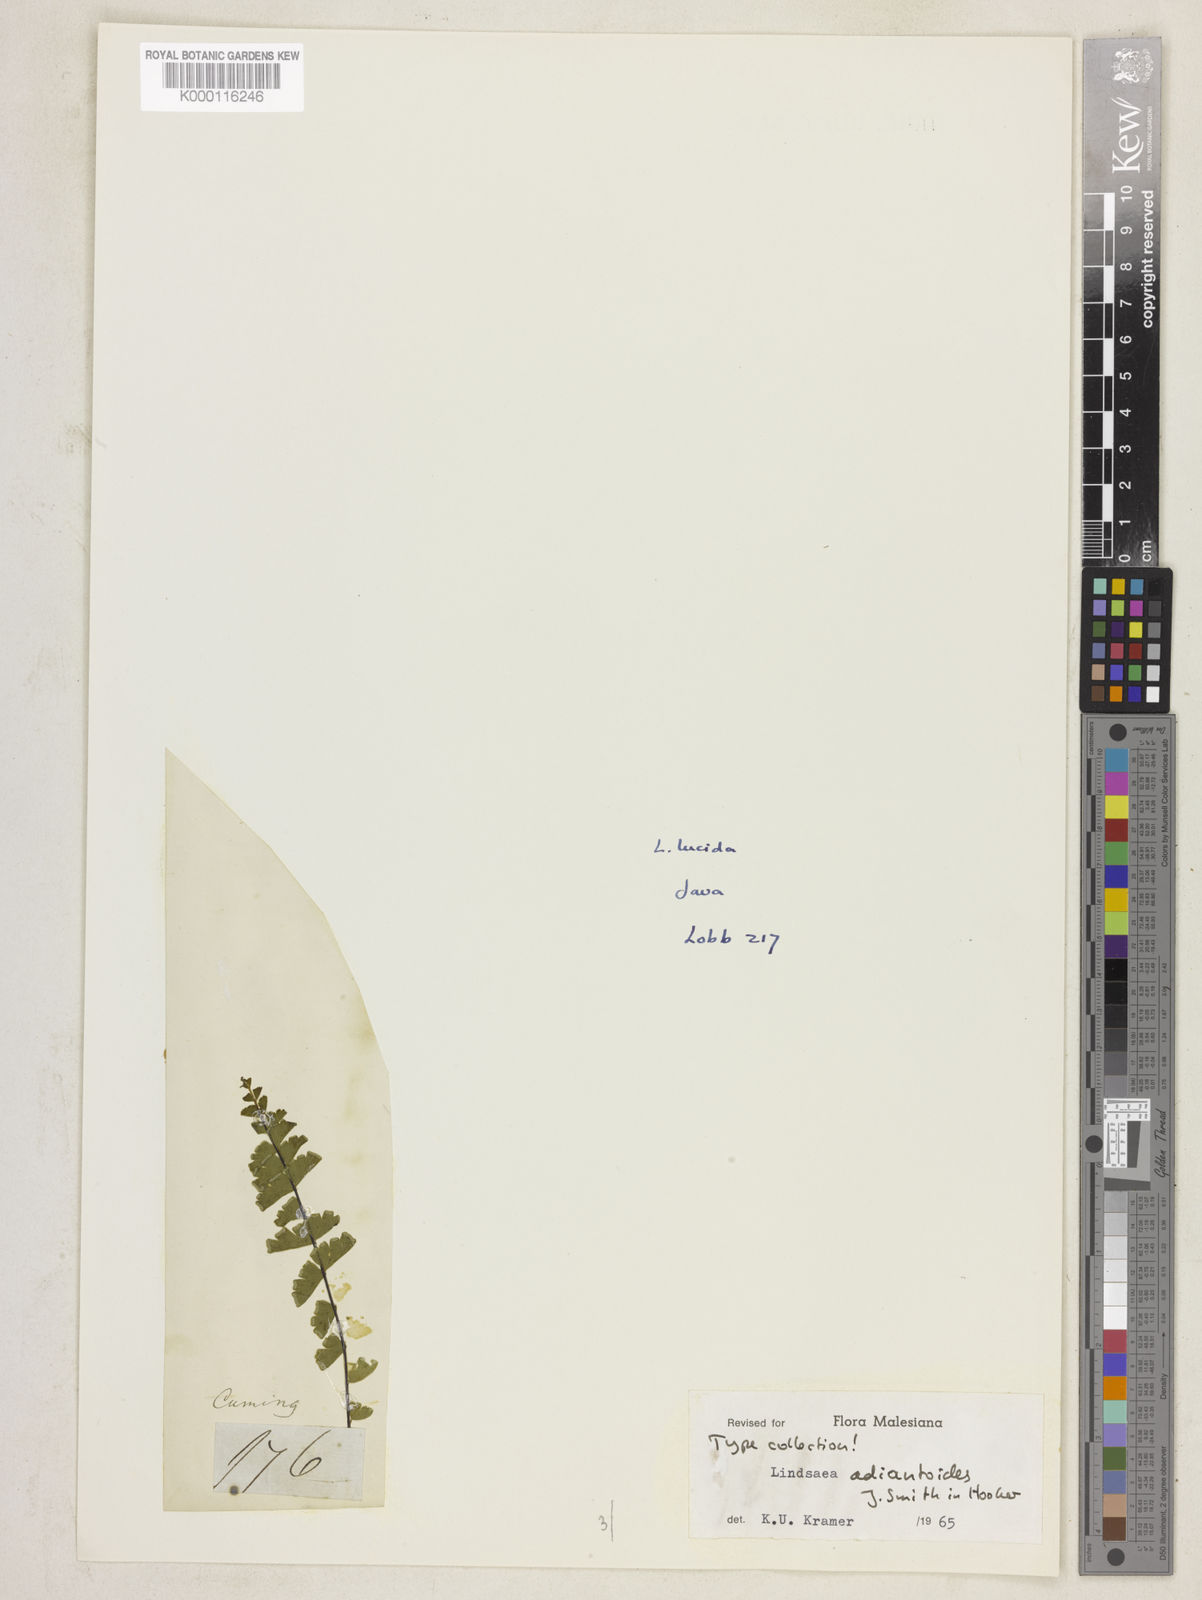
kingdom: Plantae
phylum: Tracheophyta
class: Polypodiopsida
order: Polypodiales
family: Lindsaeaceae
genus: Lindsaea
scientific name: Lindsaea adiantoides
